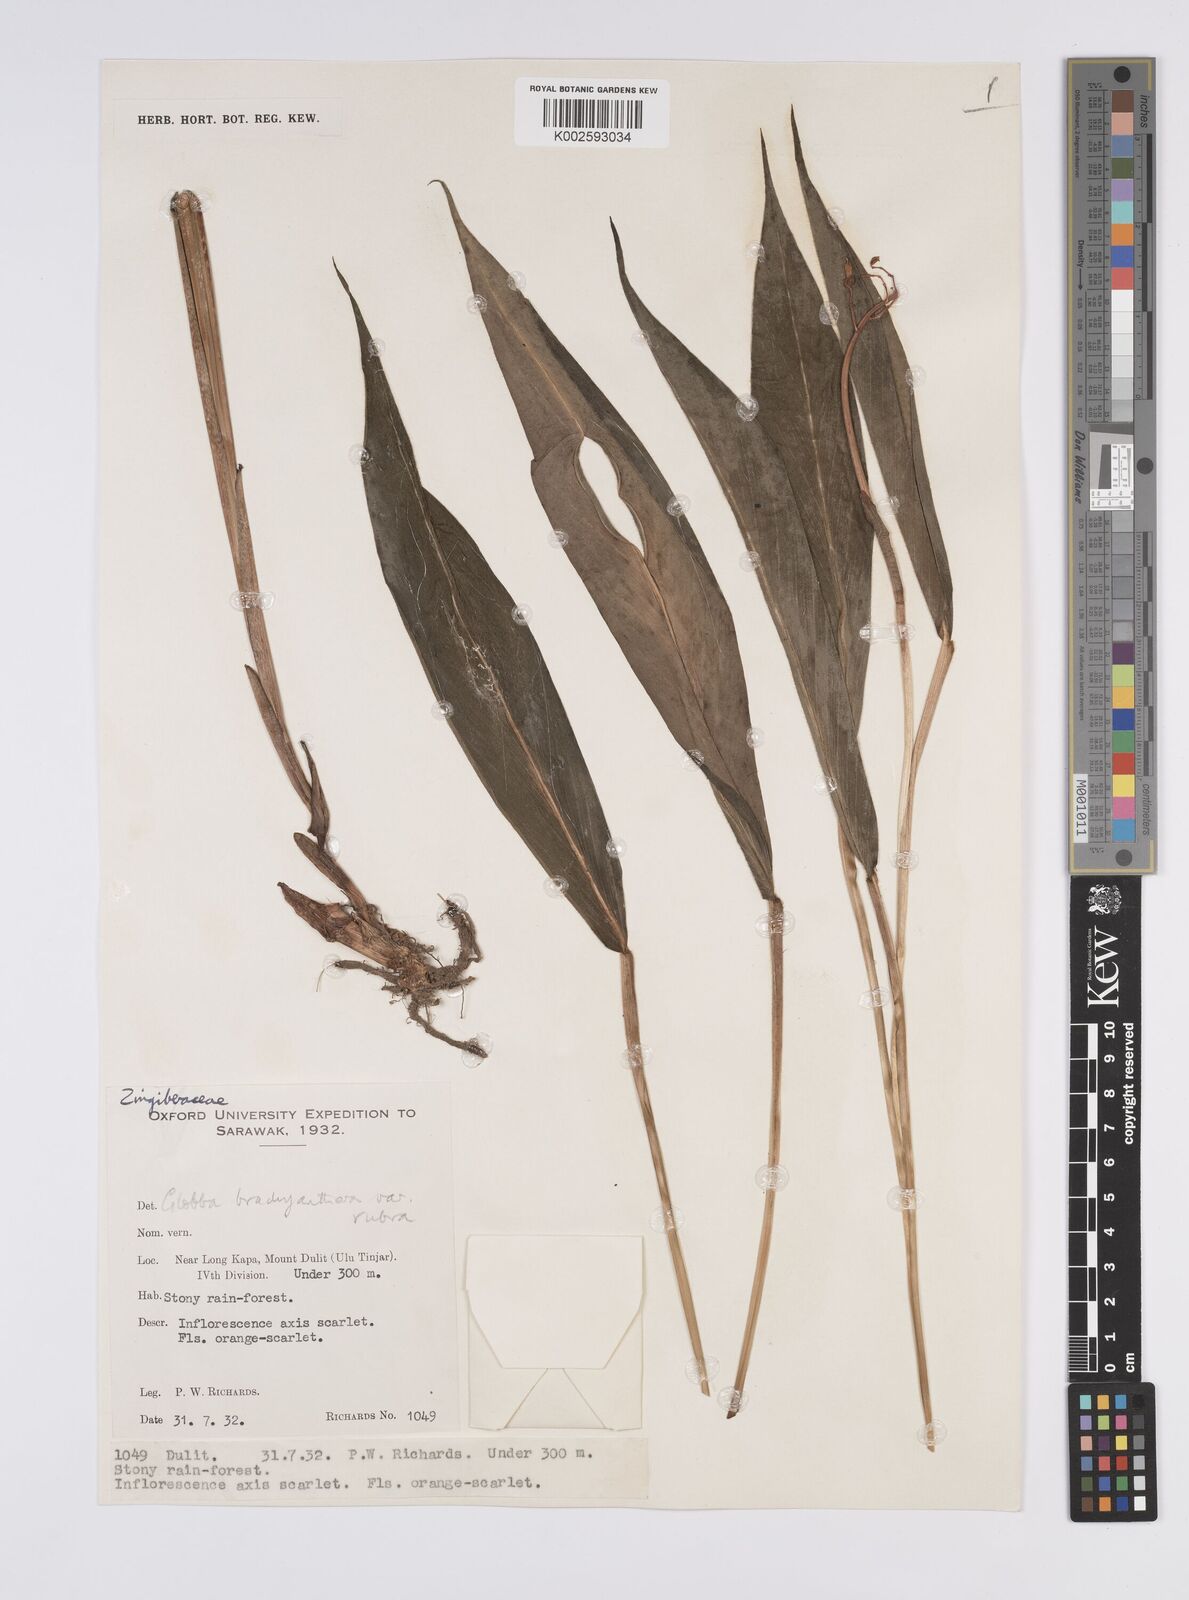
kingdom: Plantae
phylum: Tracheophyta
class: Liliopsida
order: Zingiberales
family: Zingiberaceae
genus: Globba
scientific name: Globba brachyanthera
